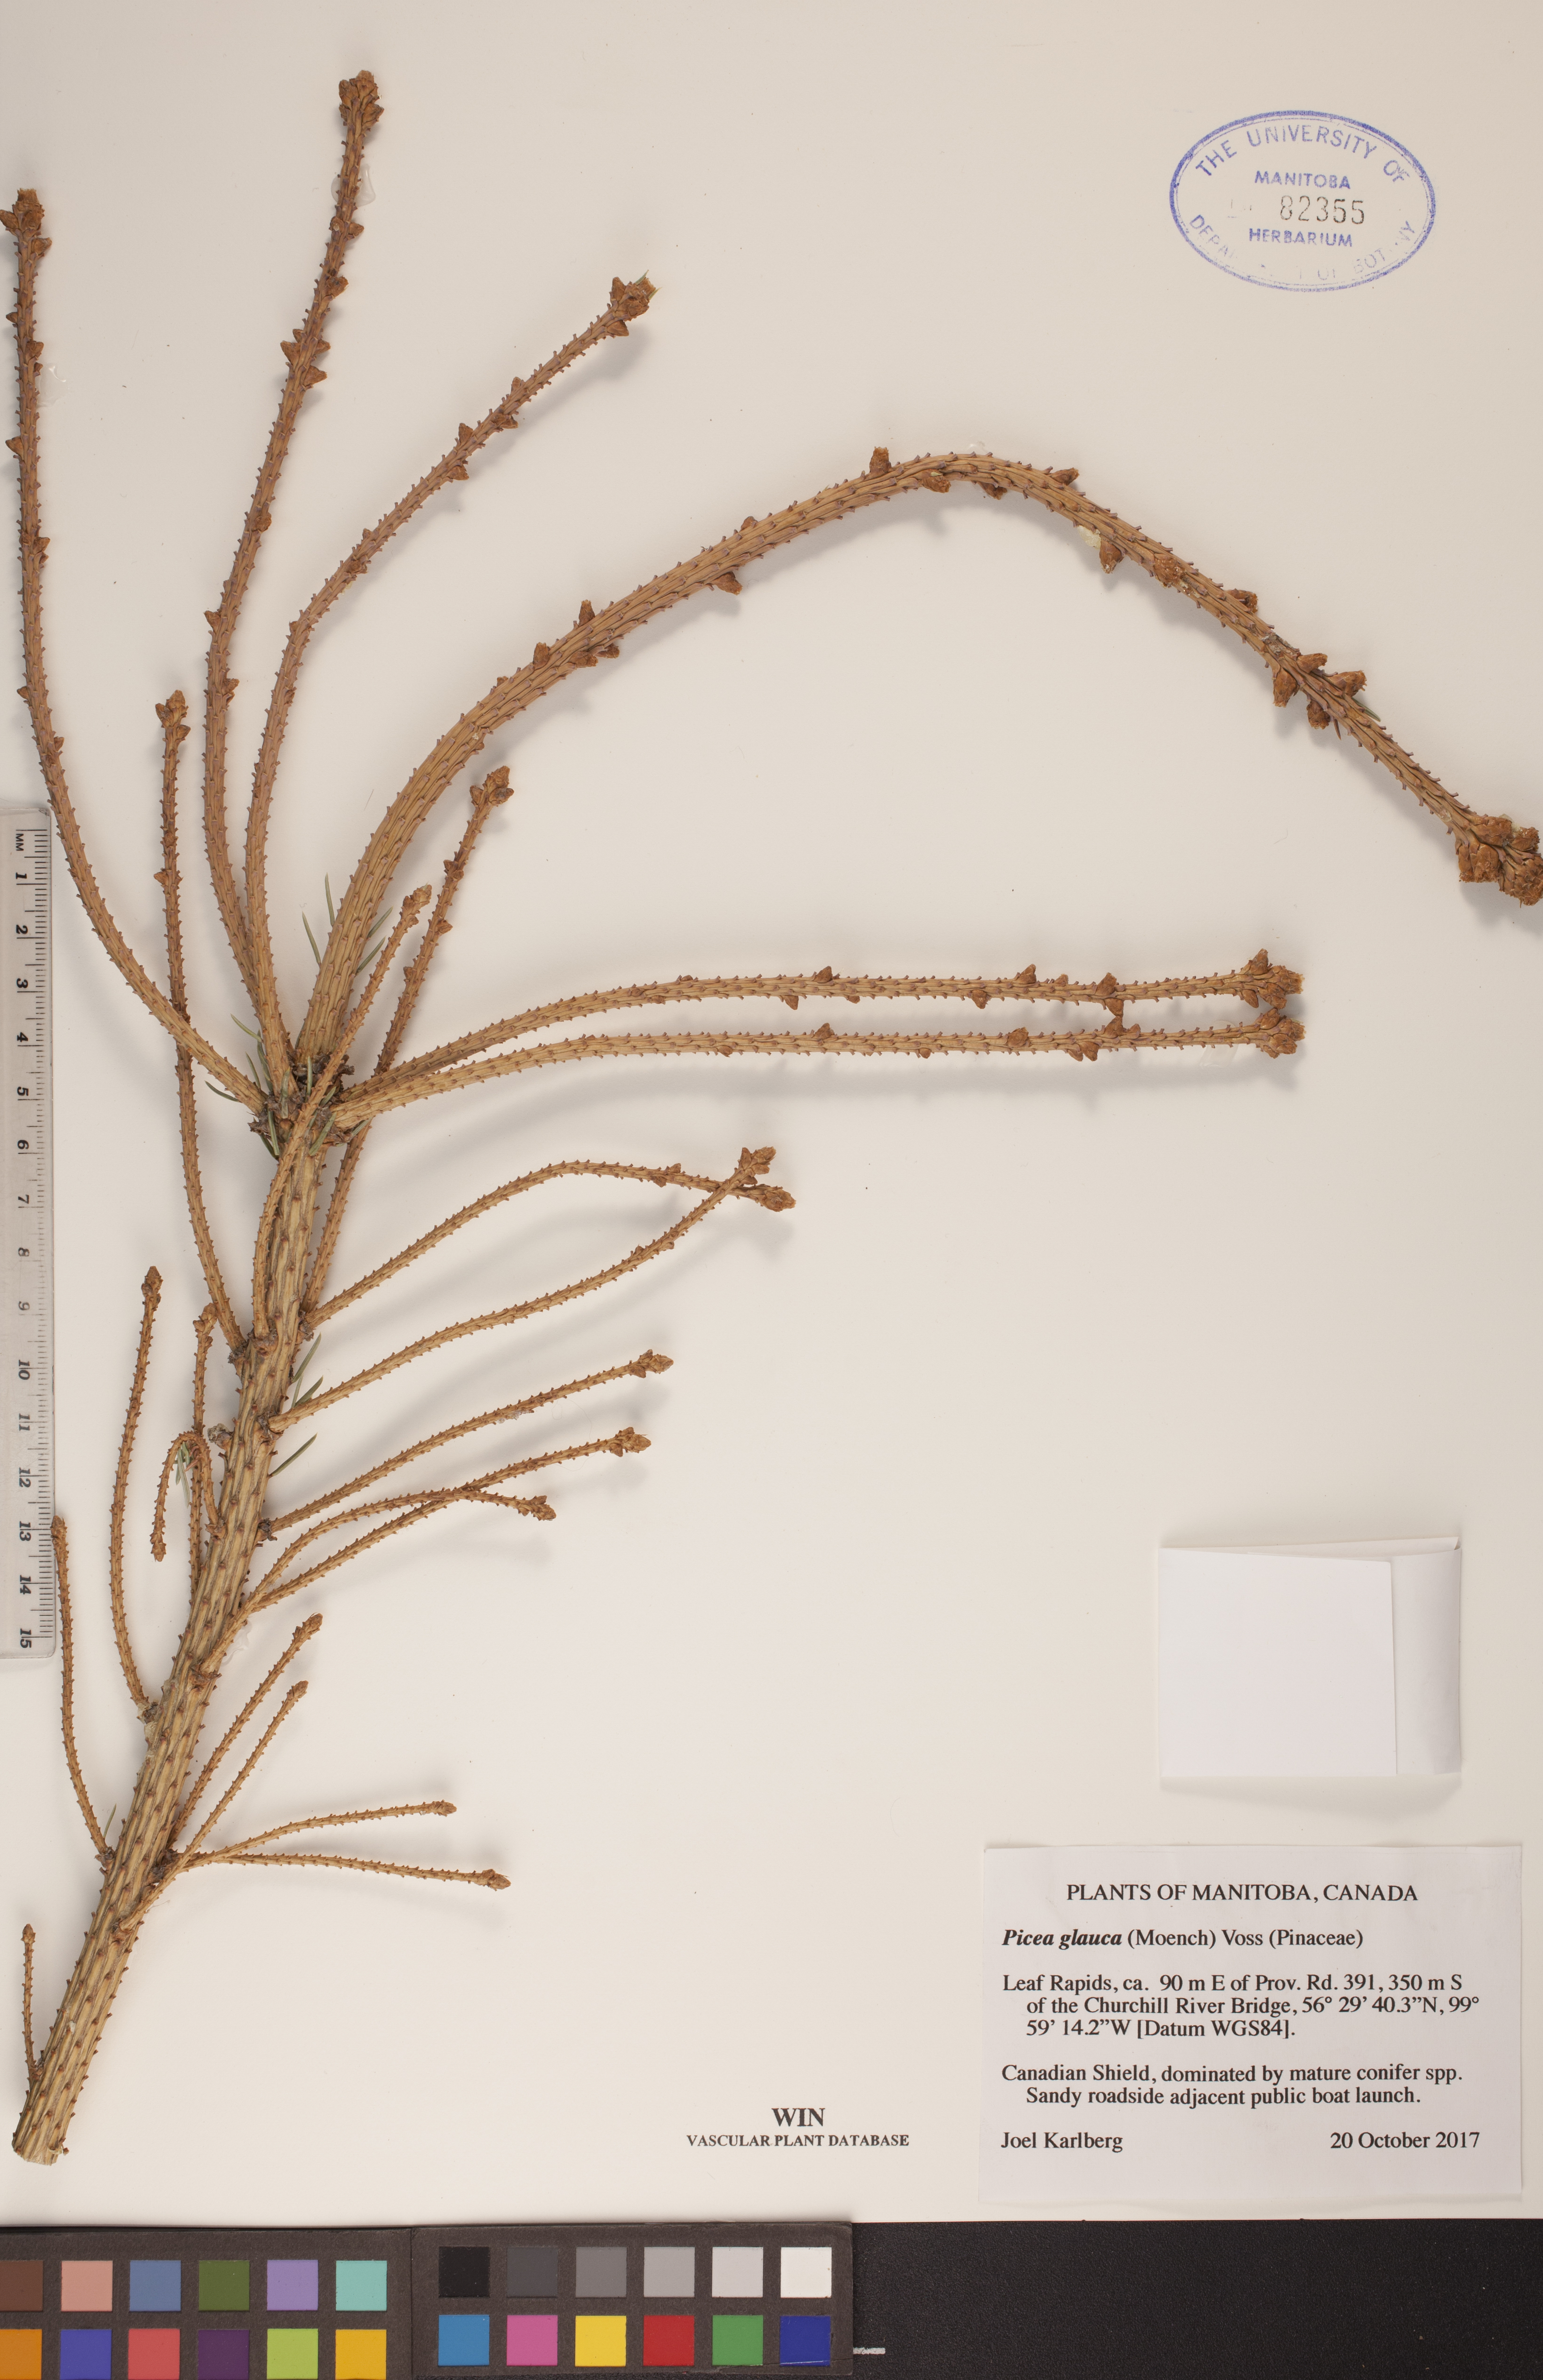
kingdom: Plantae
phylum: Tracheophyta
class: Pinopsida
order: Pinales
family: Pinaceae
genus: Picea
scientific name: Picea glauca
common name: White spruce
